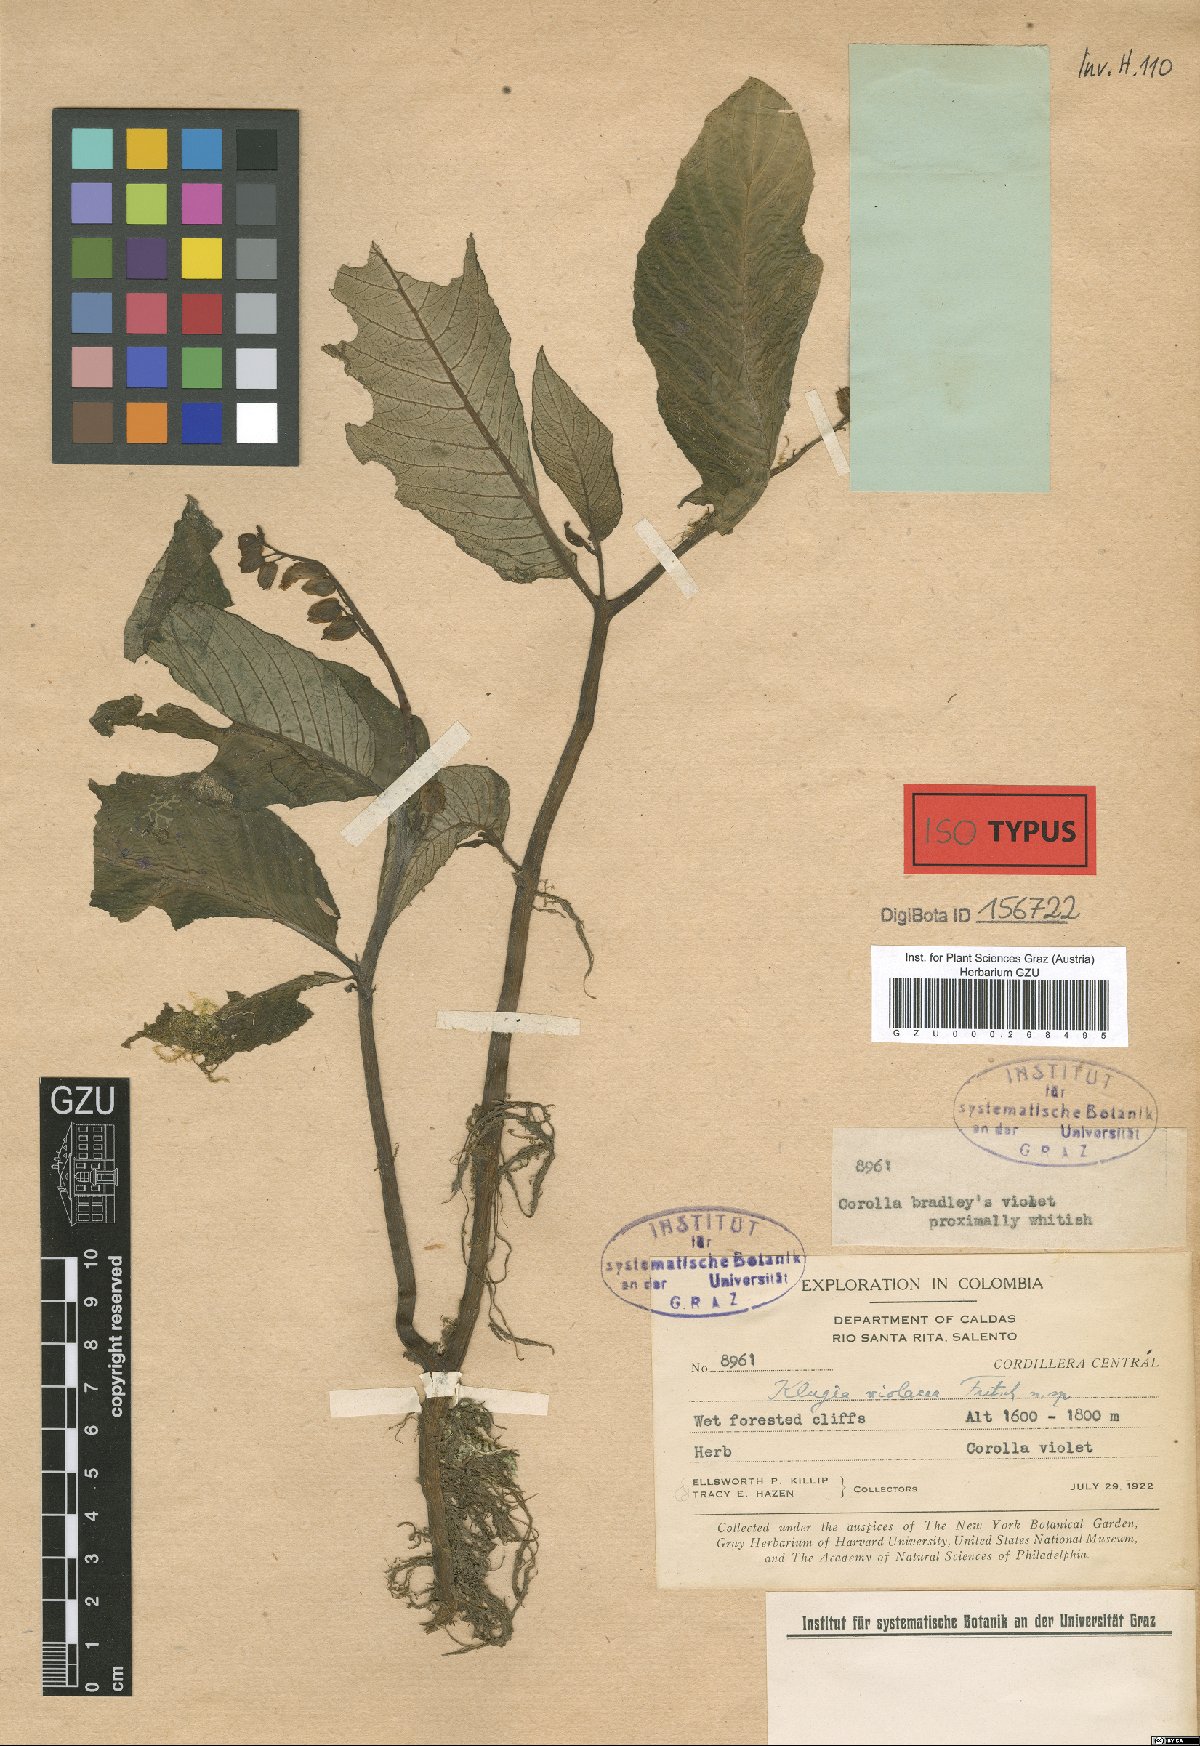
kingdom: Plantae
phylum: Tracheophyta
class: Magnoliopsida
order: Lamiales
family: Gesneriaceae
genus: Rhynchoglossum
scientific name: Rhynchoglossum azureum
